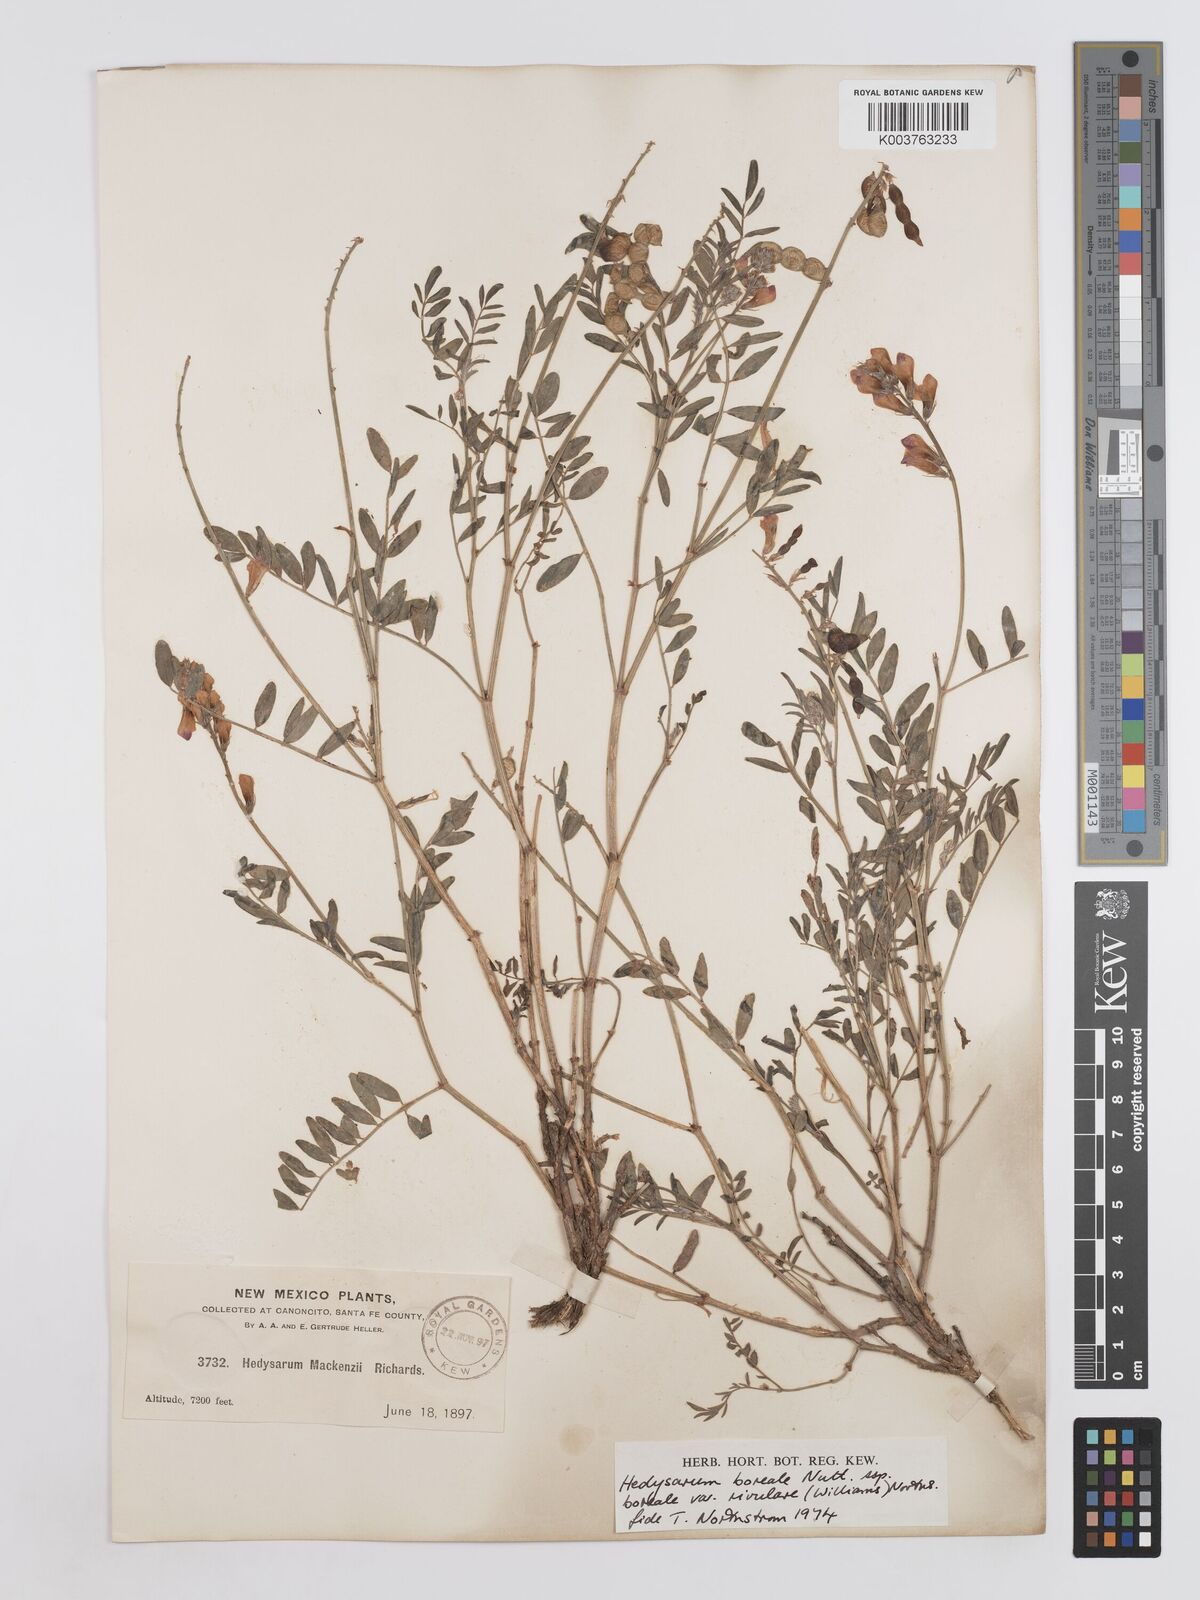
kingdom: Plantae
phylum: Tracheophyta
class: Magnoliopsida
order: Fabales
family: Fabaceae
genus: Hedysarum
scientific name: Hedysarum boreale
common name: Northern sweet-vetch
